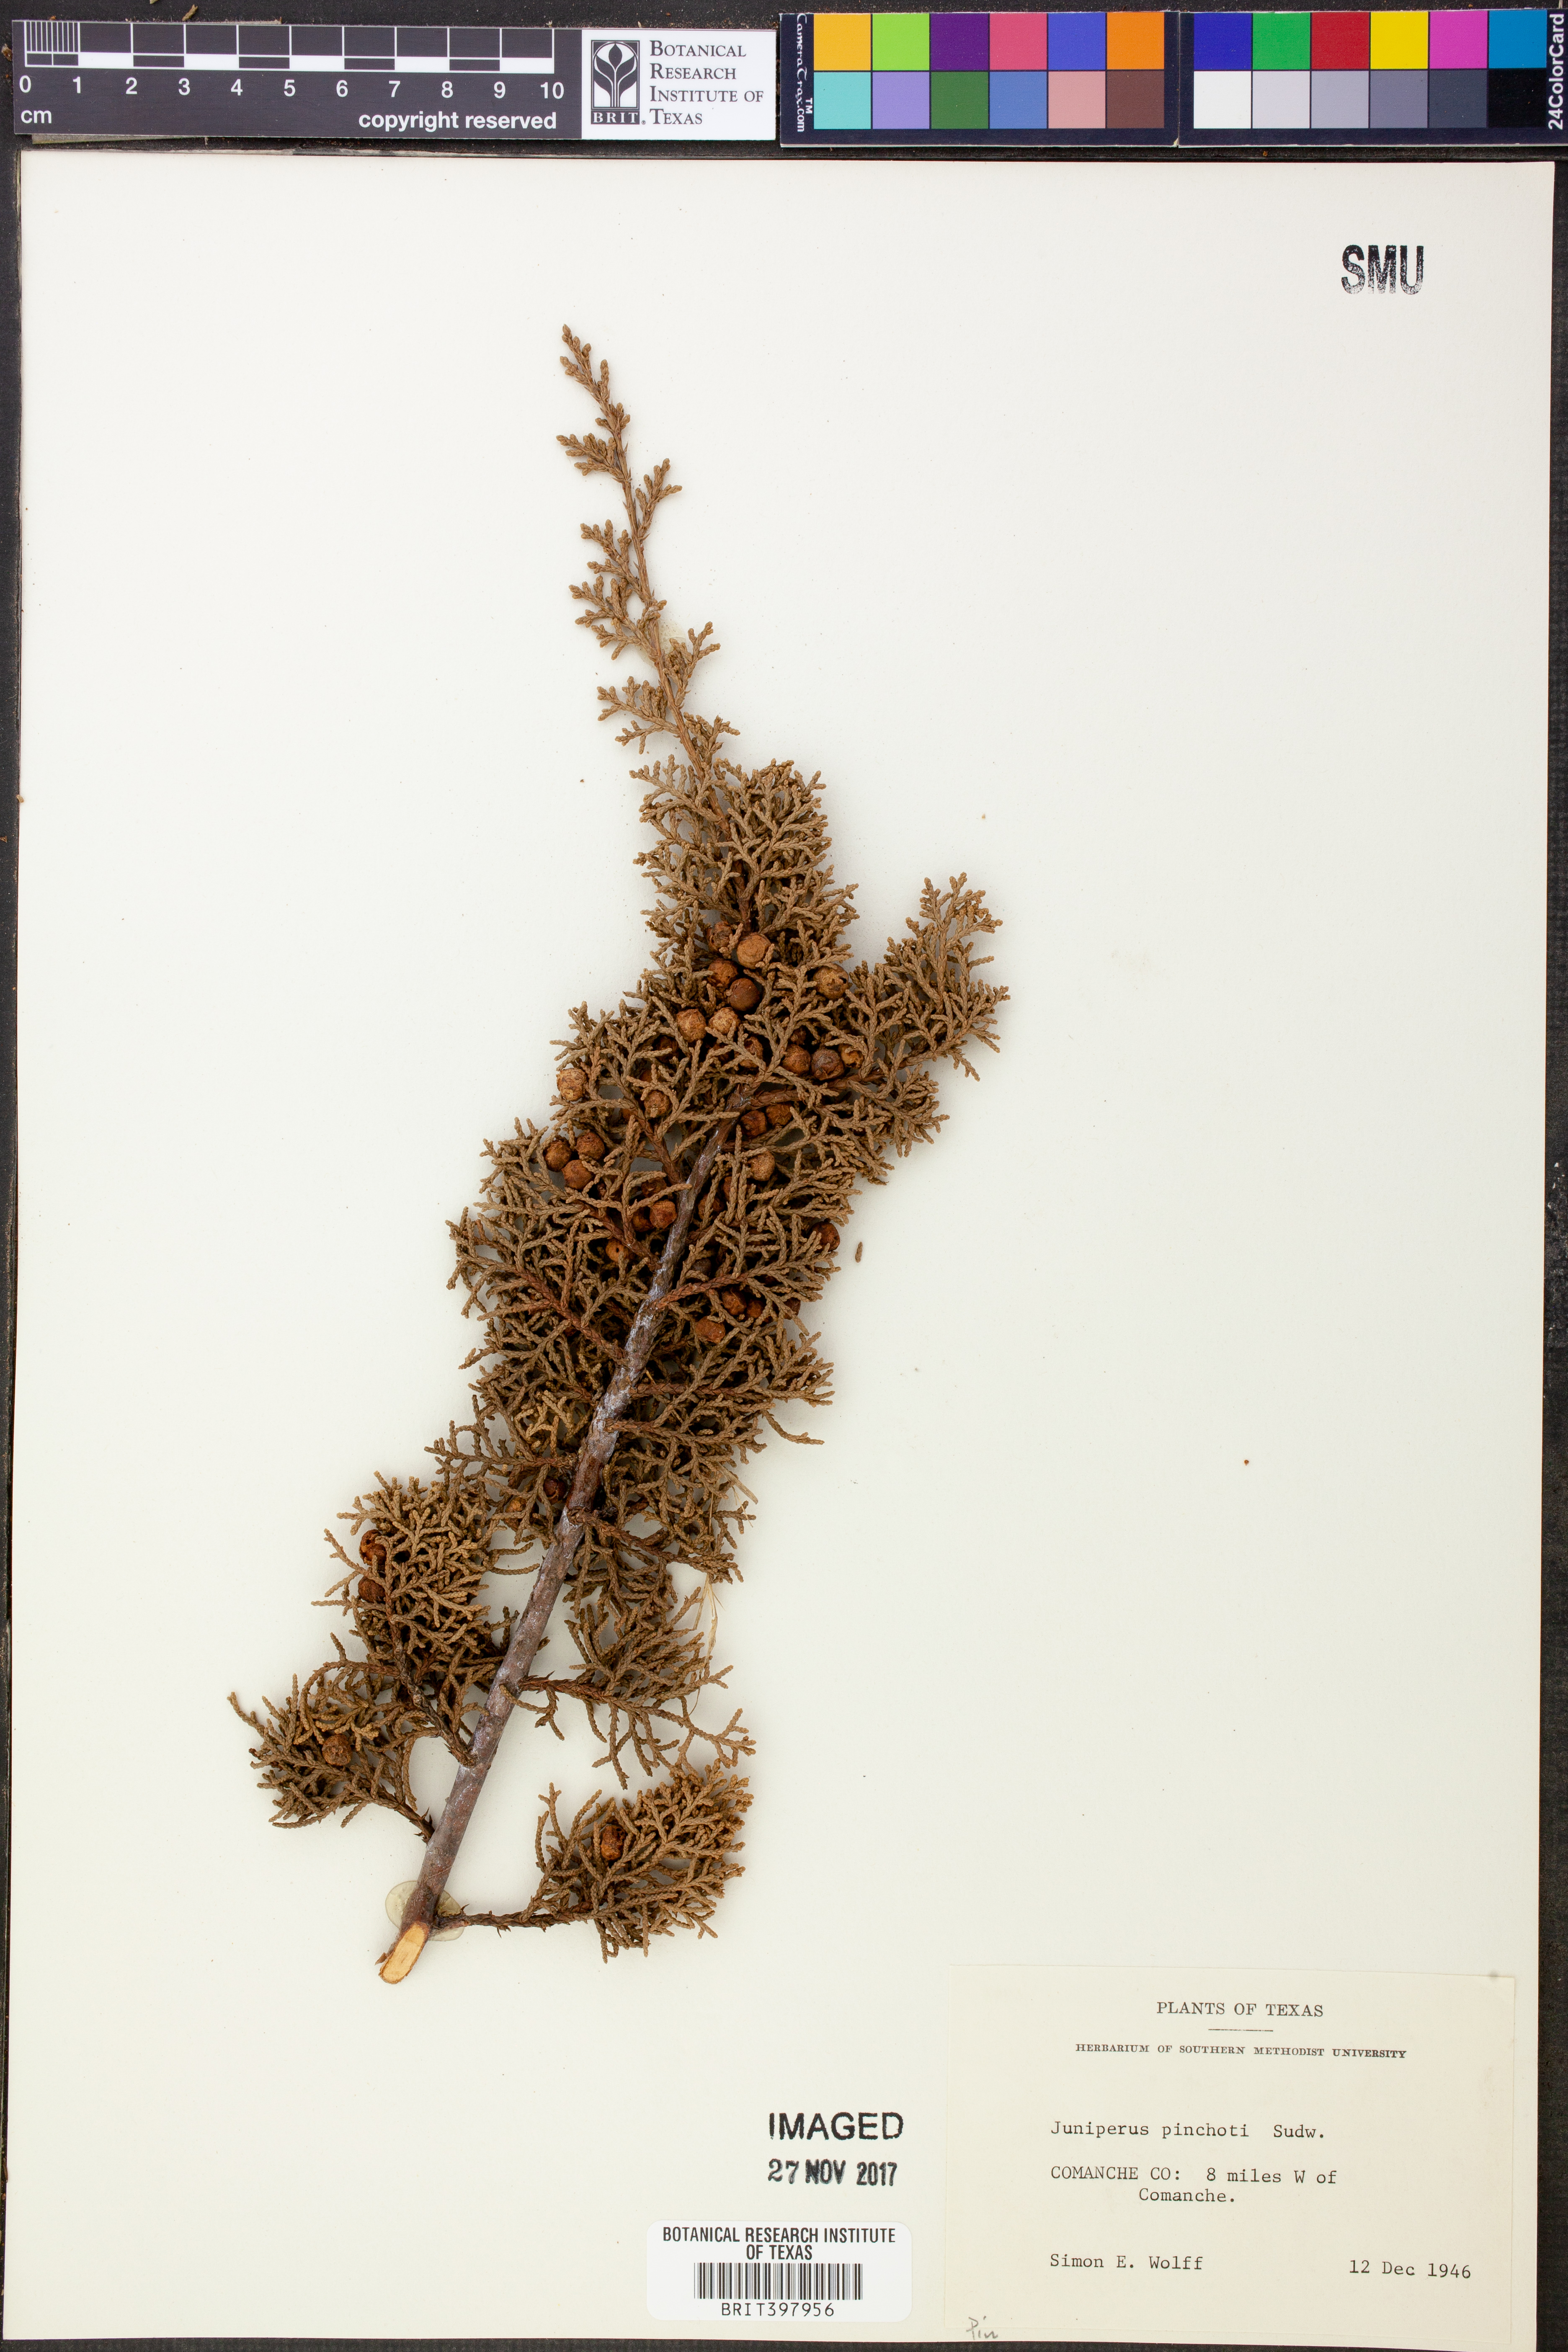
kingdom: Plantae
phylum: Tracheophyta
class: Pinopsida
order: Pinales
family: Cupressaceae
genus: Juniperus
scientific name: Juniperus pinchotii
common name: Pinchot juniper
